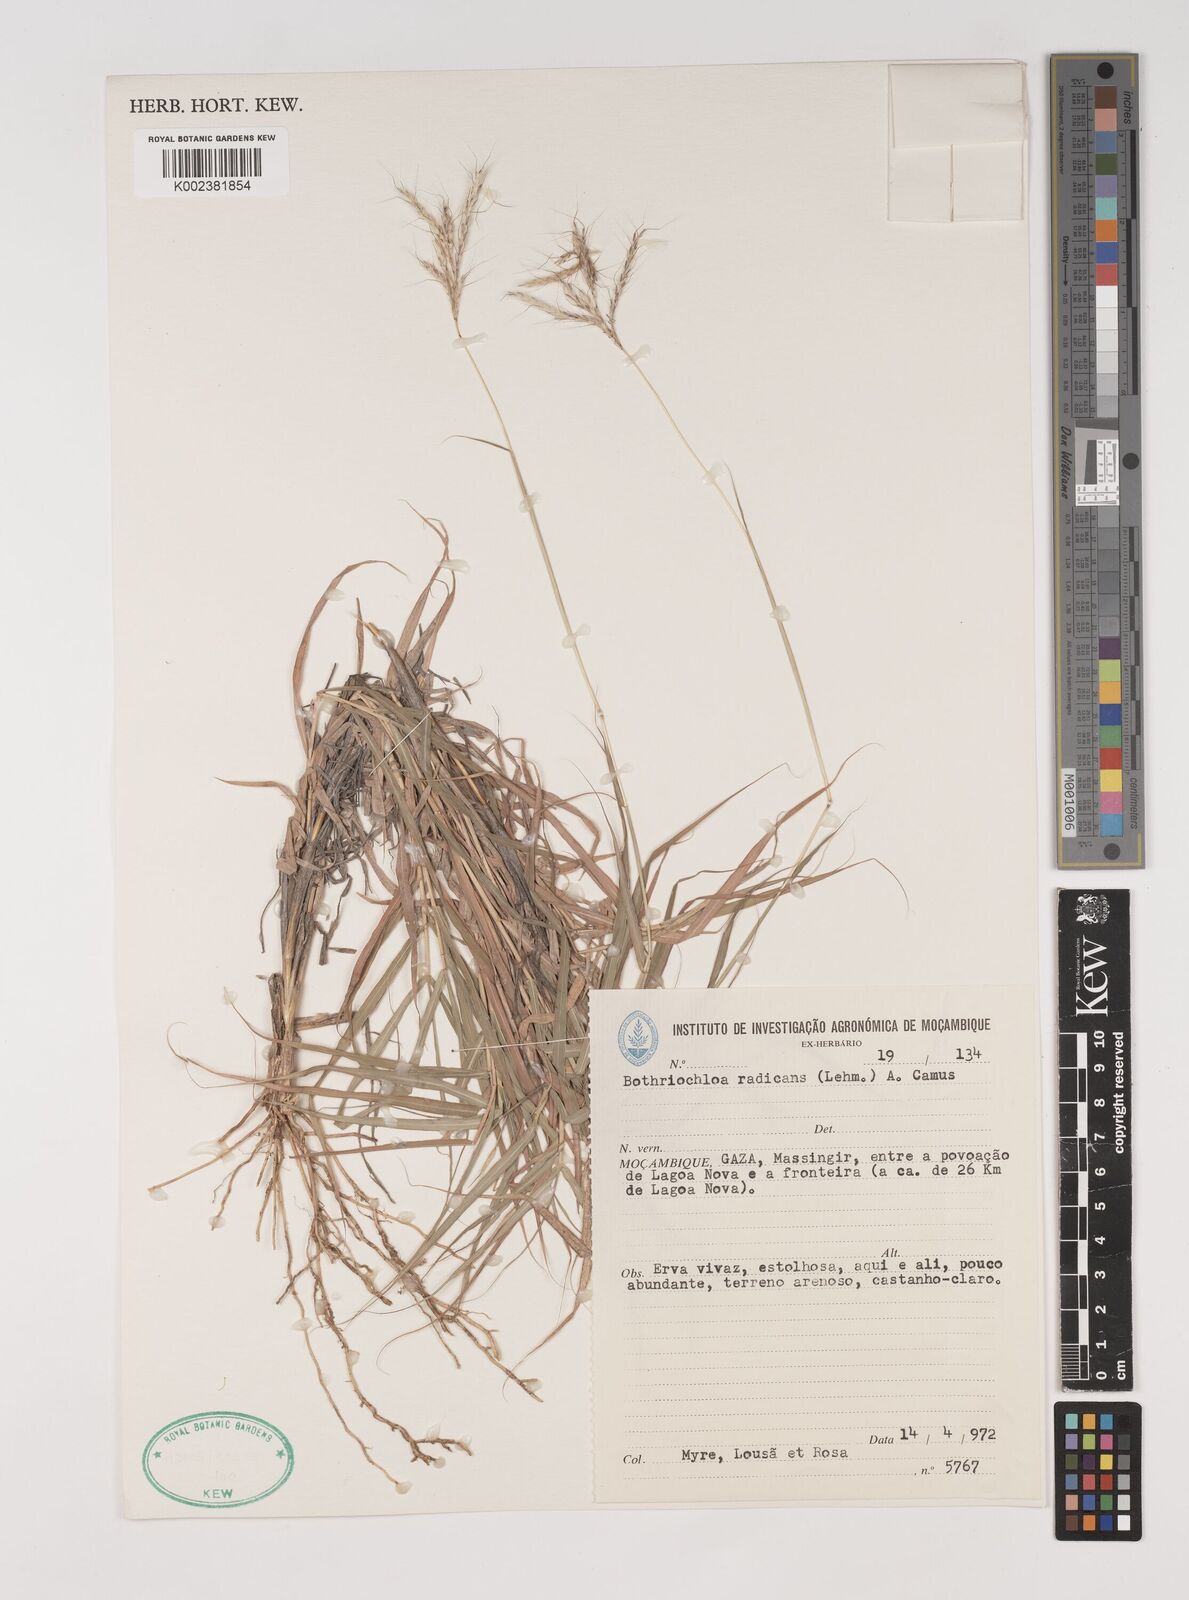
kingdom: Plantae
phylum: Tracheophyta
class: Liliopsida
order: Poales
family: Poaceae
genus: Bothriochloa
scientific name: Bothriochloa radicans
